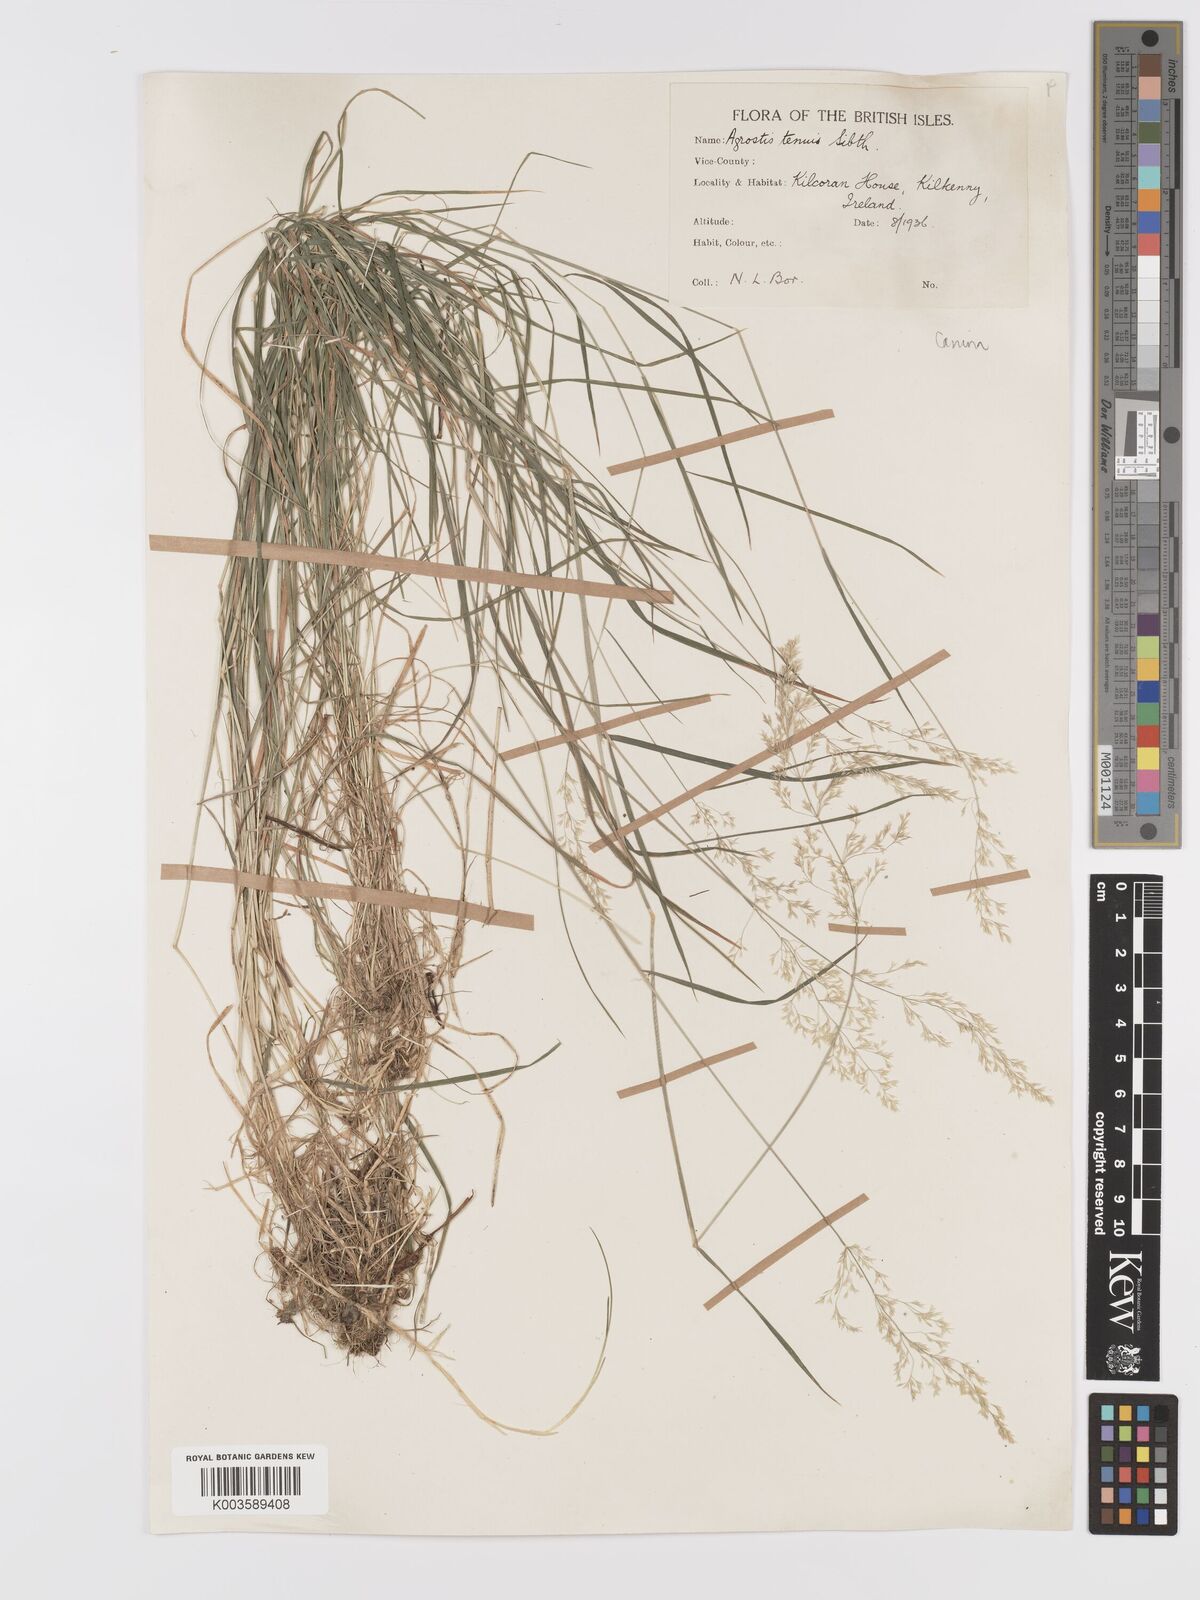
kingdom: Plantae
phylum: Tracheophyta
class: Liliopsida
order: Poales
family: Poaceae
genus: Agrostis
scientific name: Agrostis canina
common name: Velvet bent
